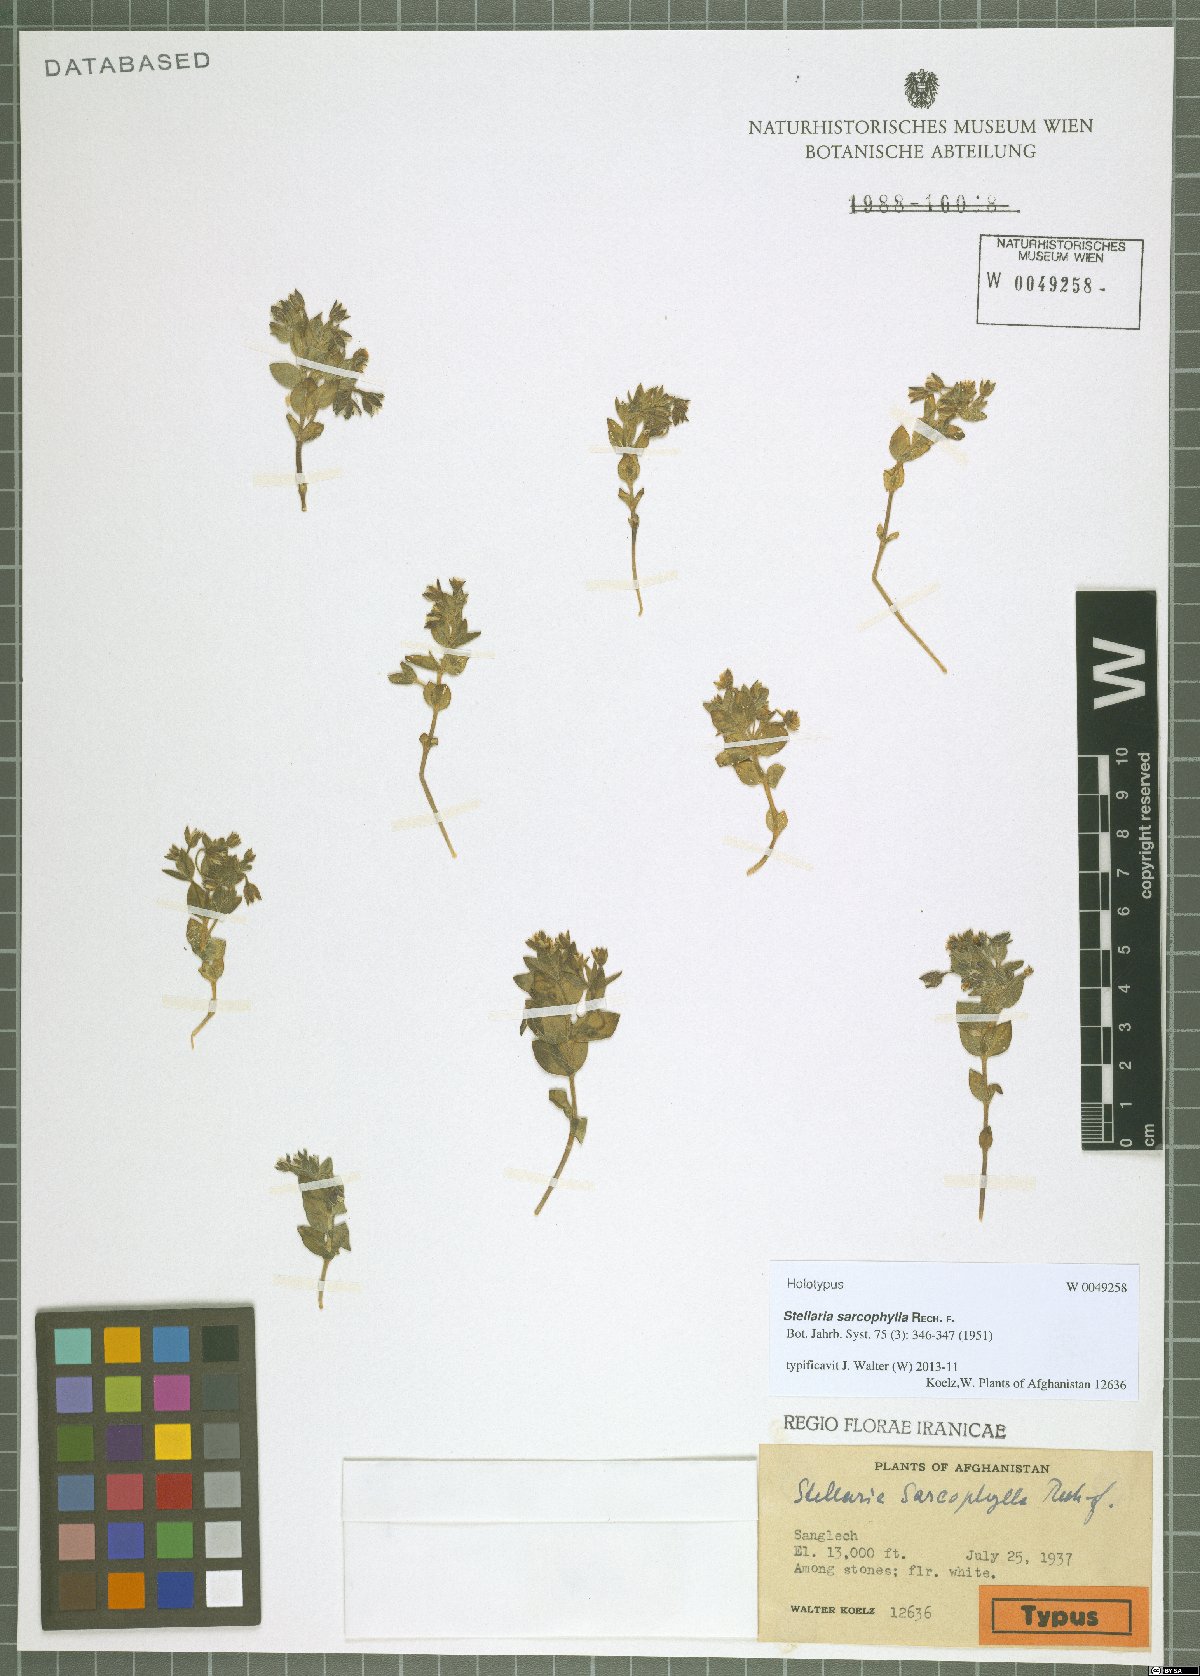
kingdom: Plantae
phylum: Tracheophyta
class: Magnoliopsida
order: Caryophyllales
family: Caryophyllaceae
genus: Stellaria
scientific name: Stellaria sarcophylla
